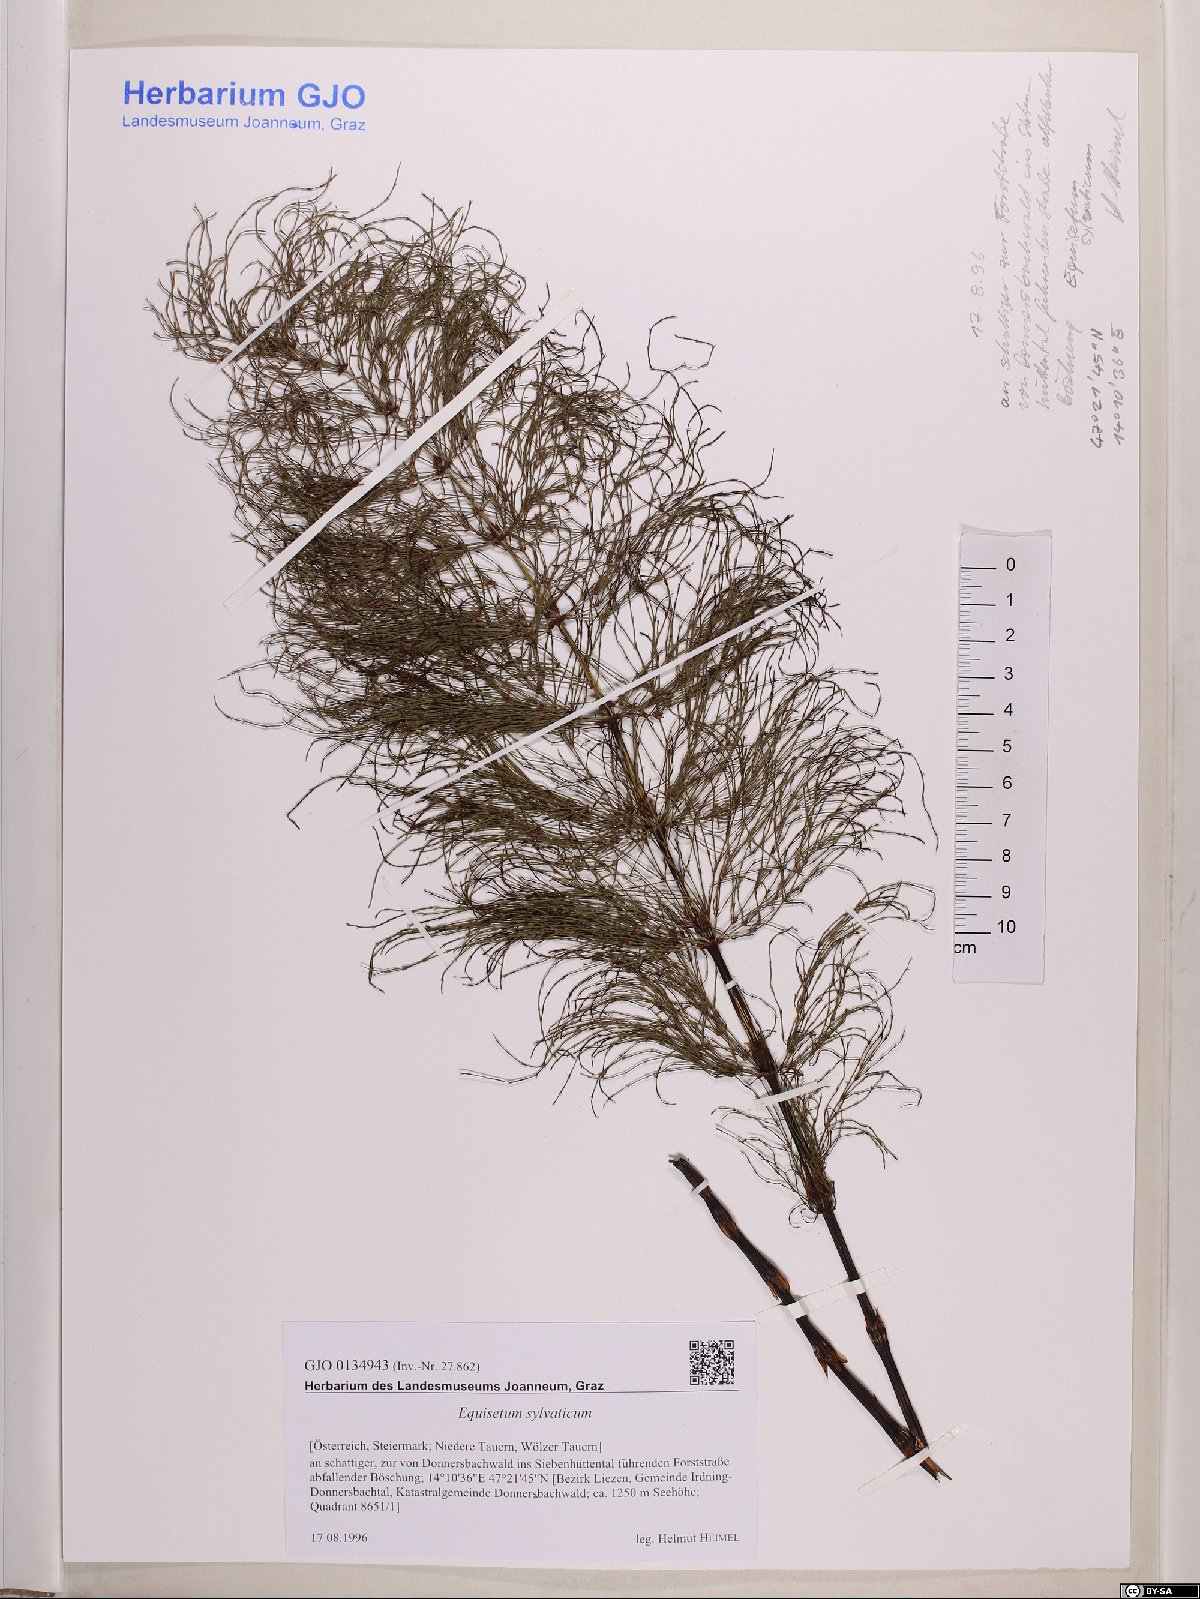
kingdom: Plantae
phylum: Tracheophyta
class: Polypodiopsida
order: Equisetales
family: Equisetaceae
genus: Equisetum
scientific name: Equisetum sylvaticum
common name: Wood horsetail
